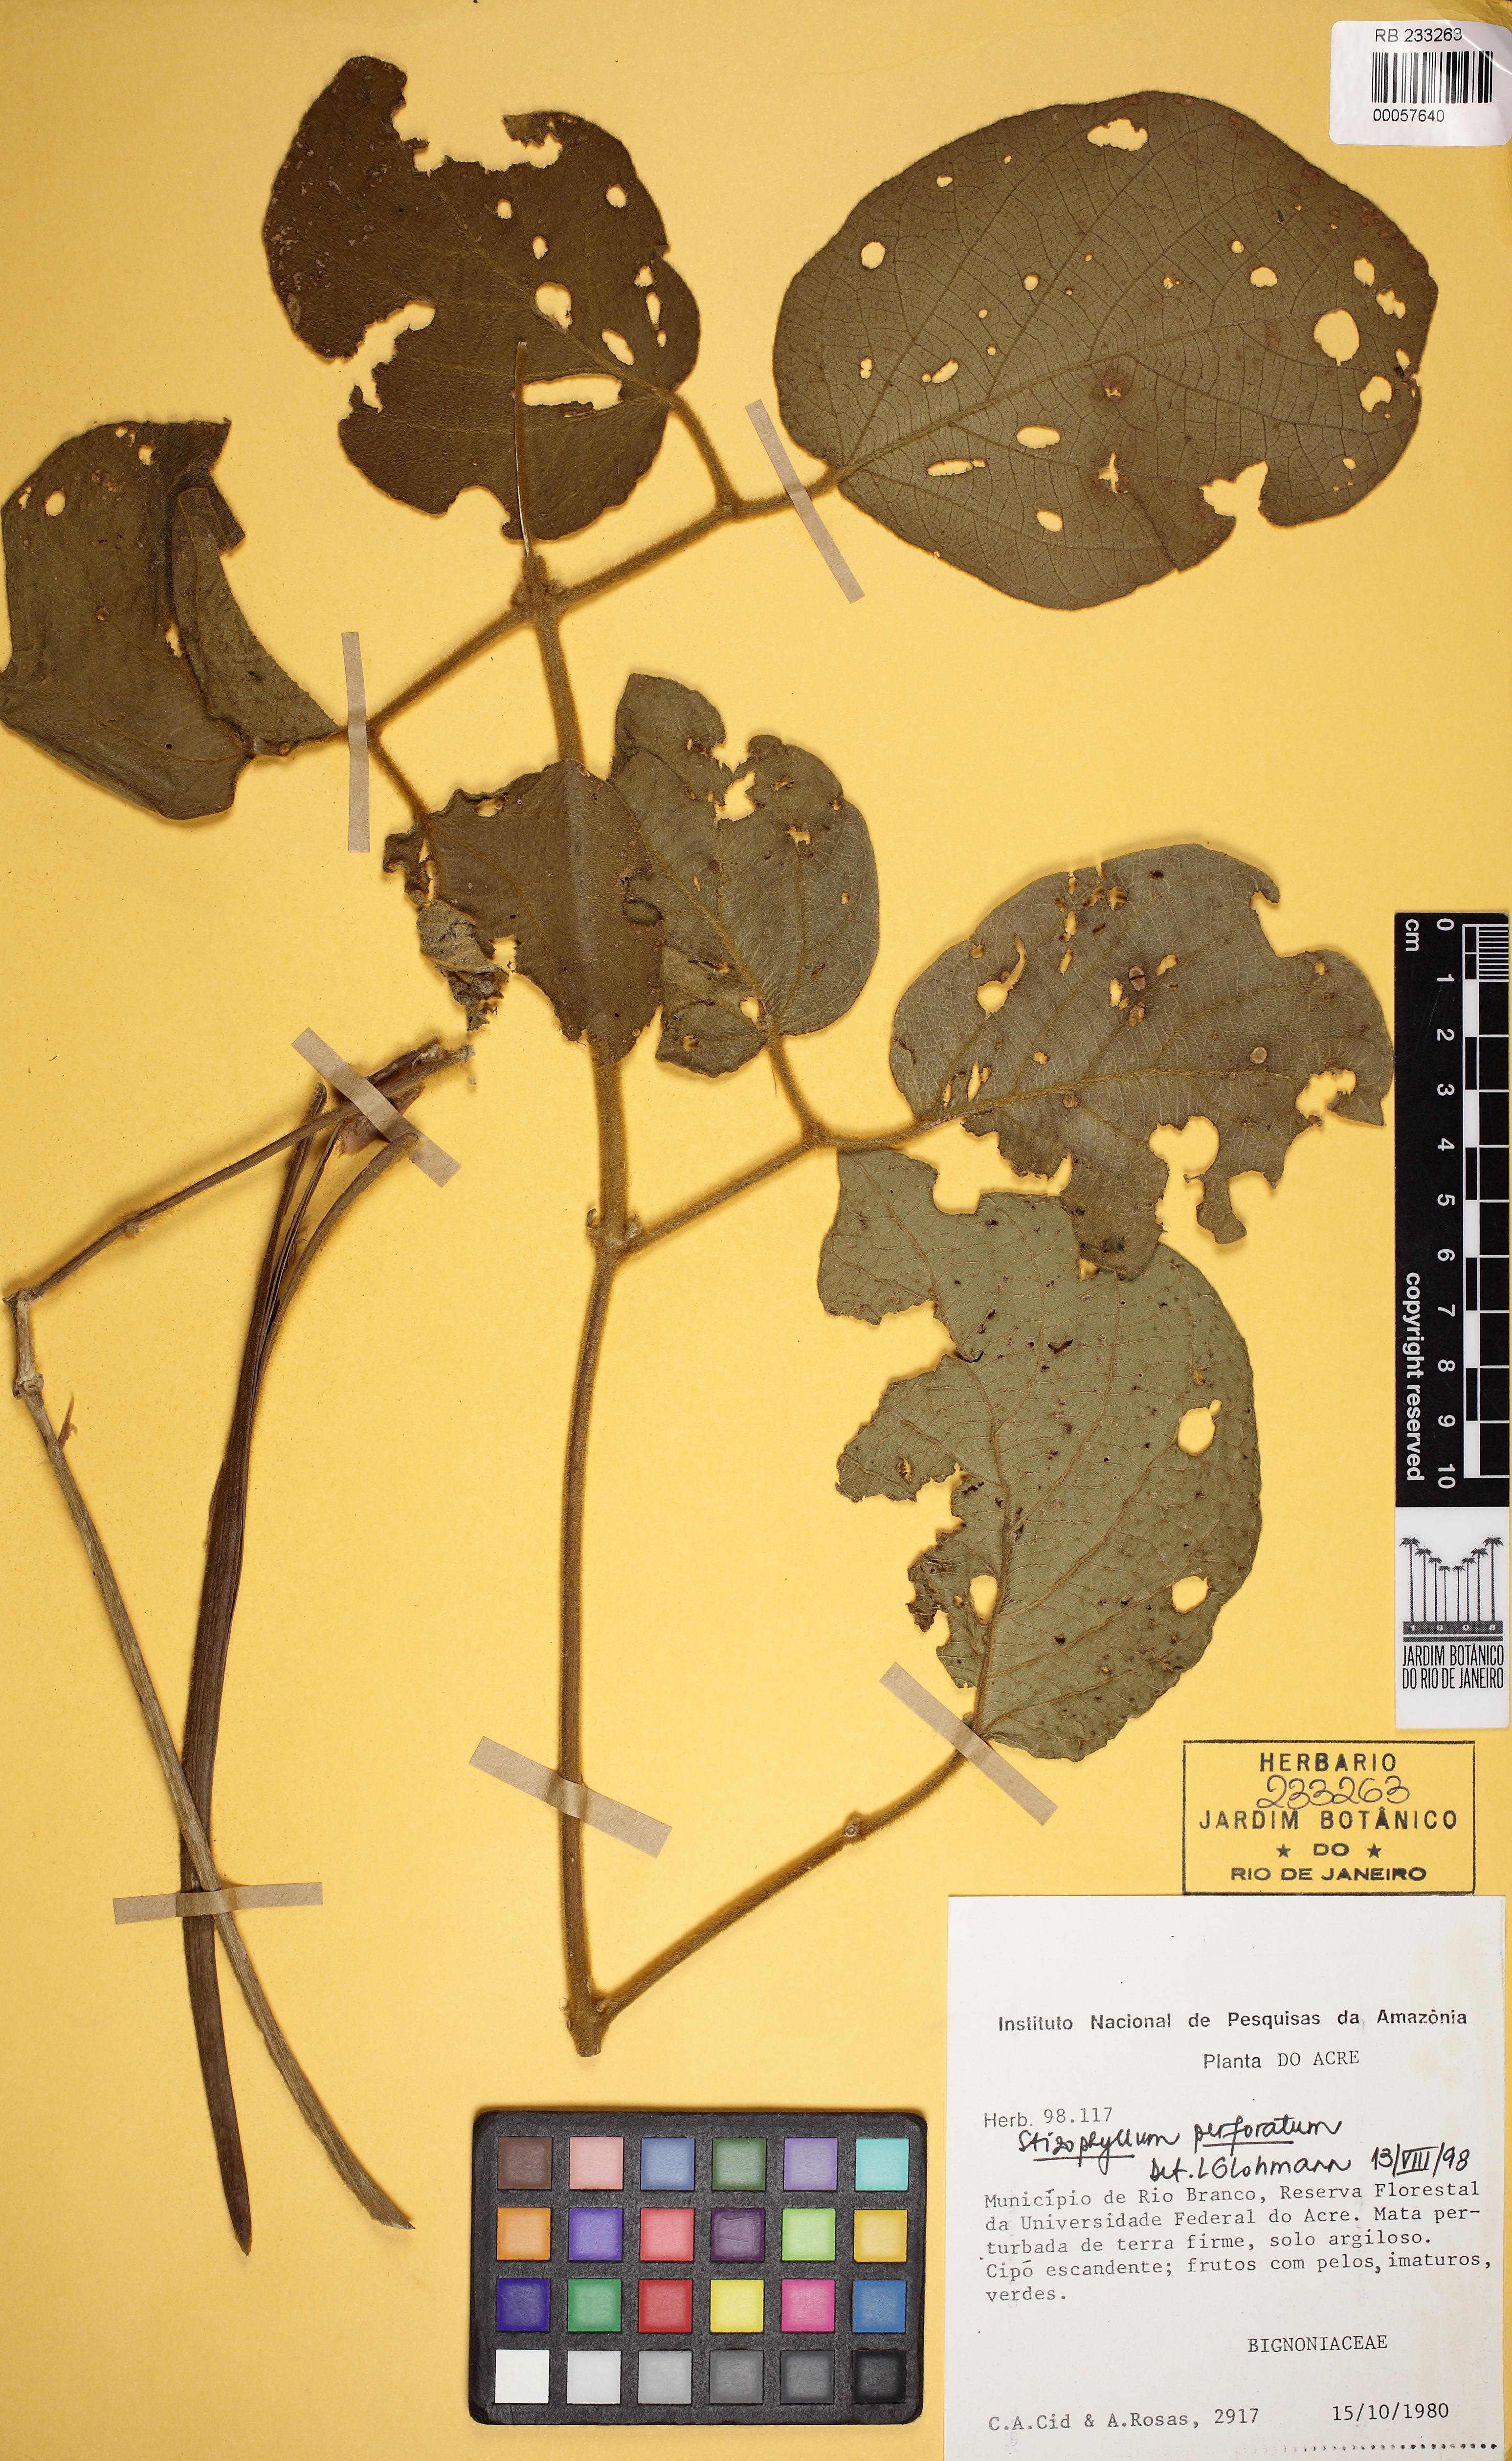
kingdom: Plantae
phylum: Tracheophyta
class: Magnoliopsida
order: Lamiales
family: Bignoniaceae
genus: Stizophyllum
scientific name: Stizophyllum inaequilaterum
